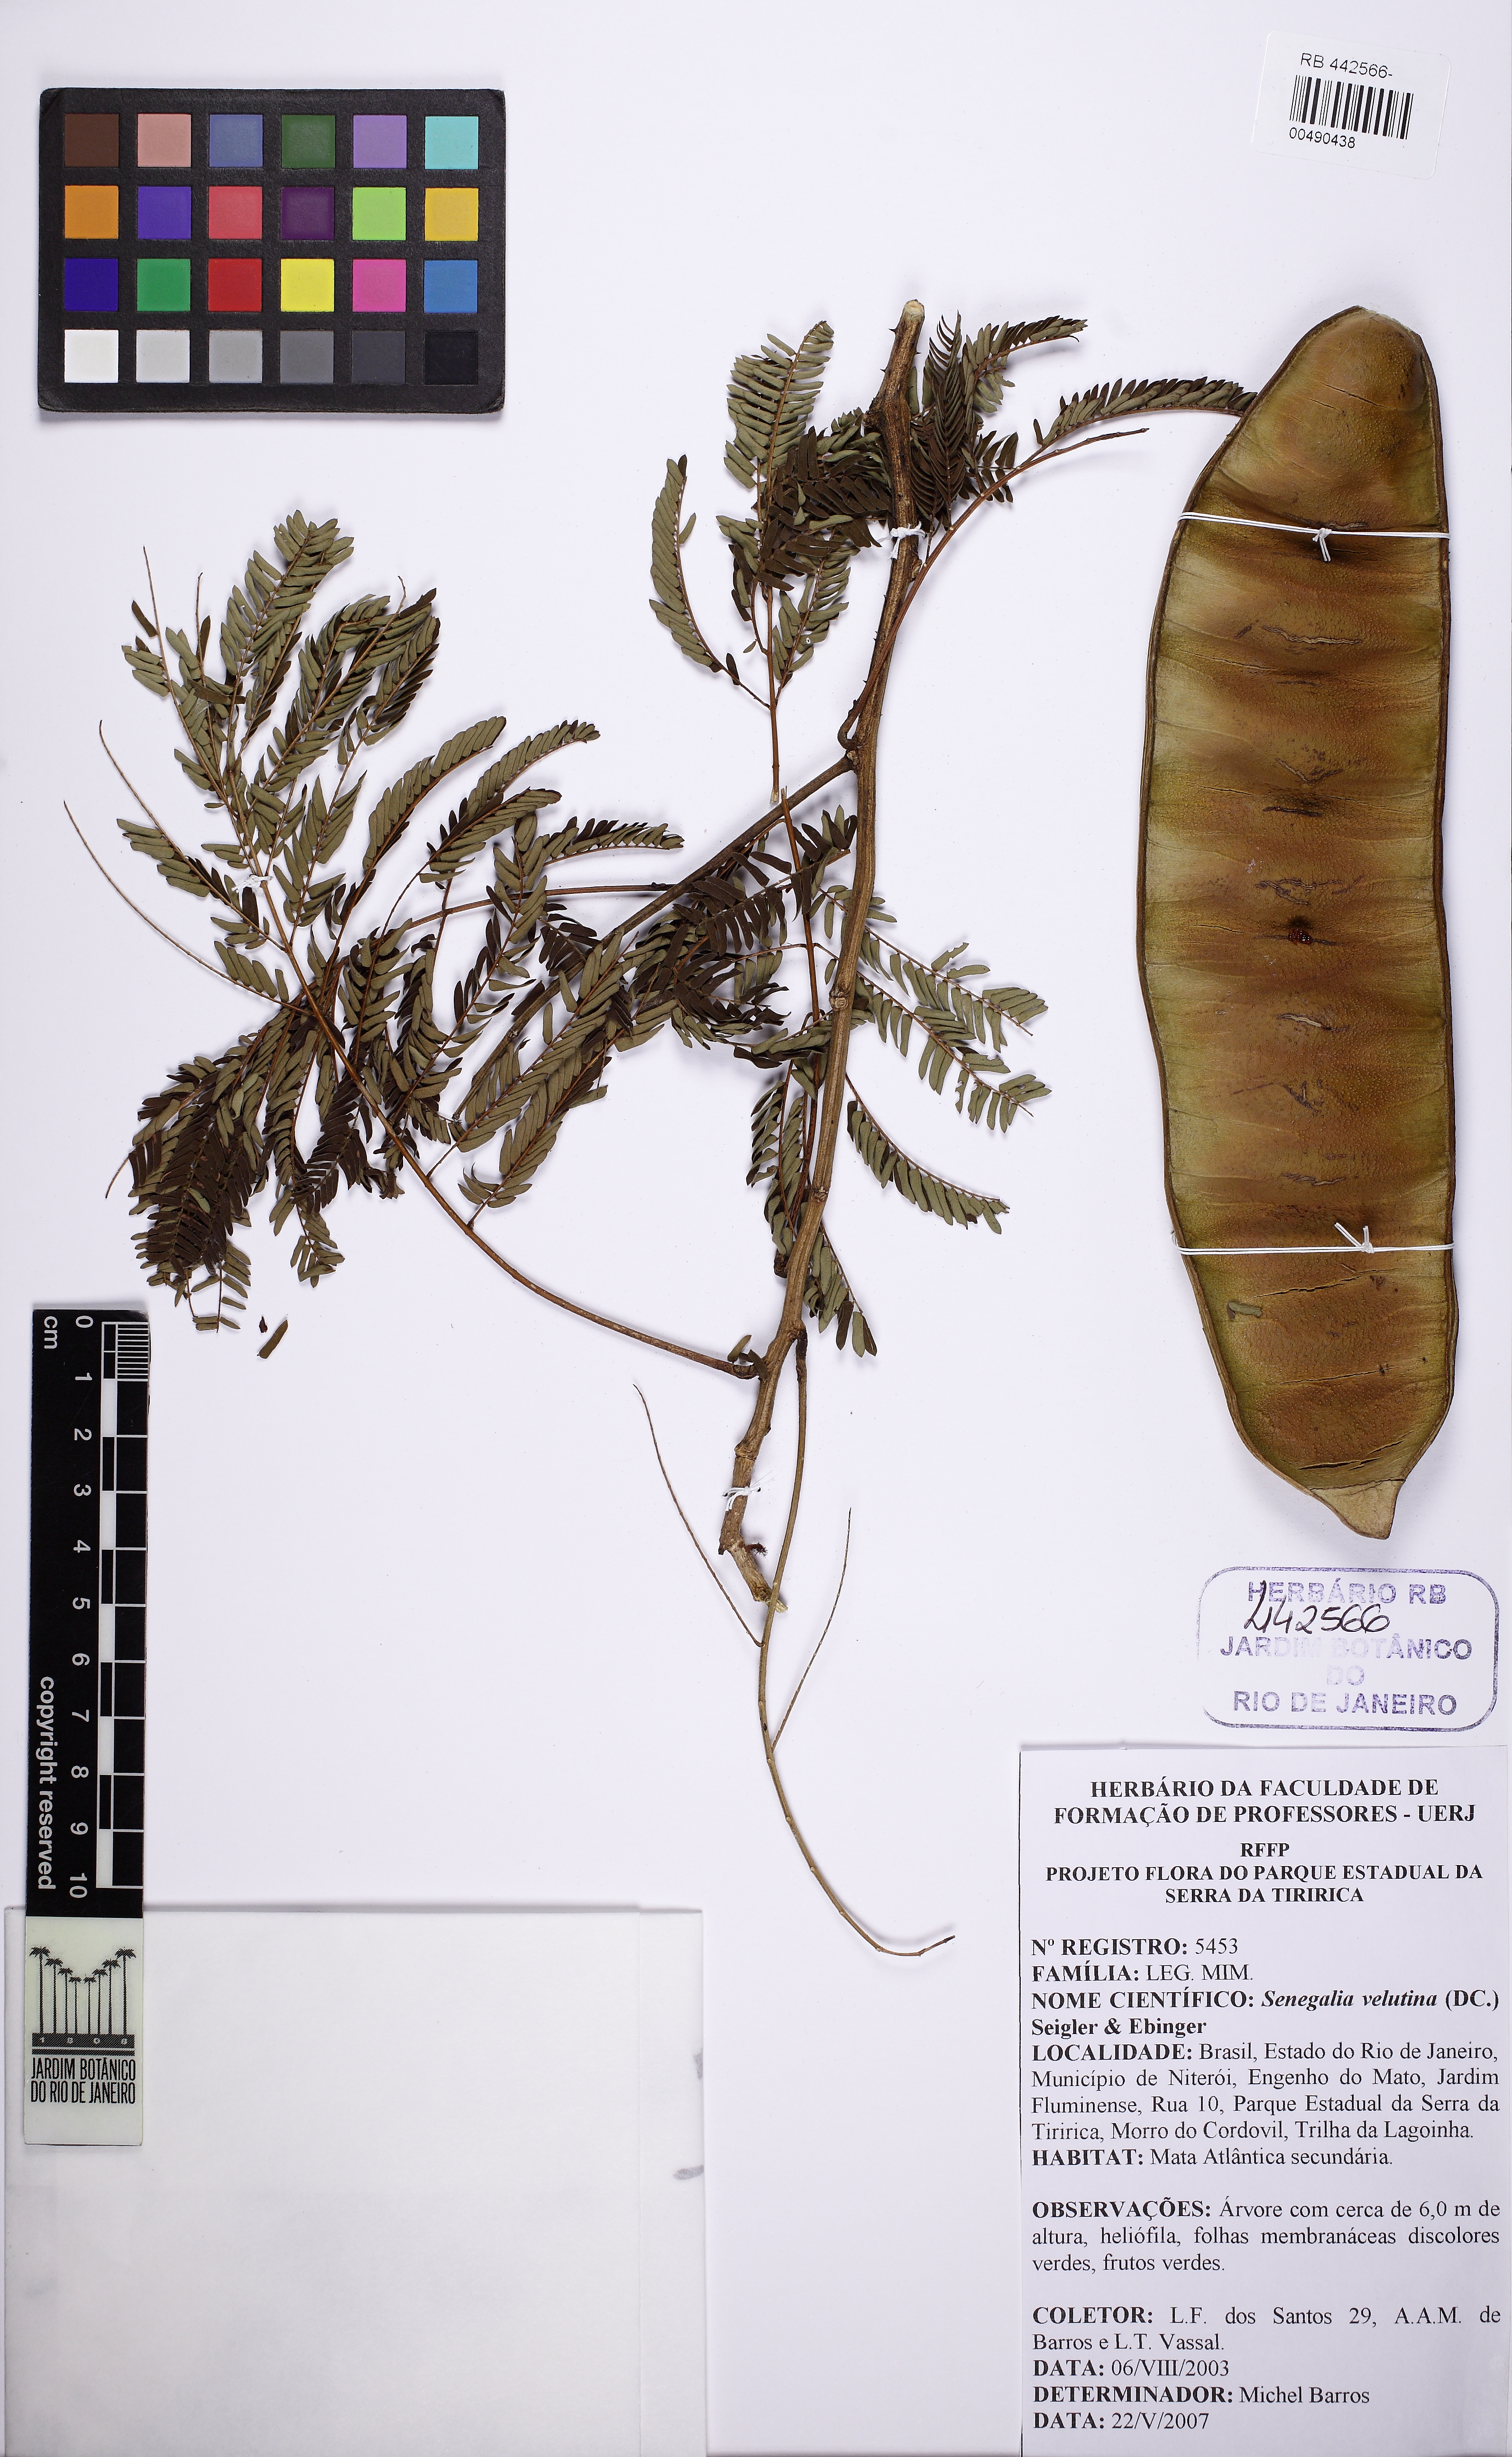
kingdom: Plantae
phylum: Tracheophyta
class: Magnoliopsida
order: Fabales
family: Fabaceae
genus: Senegalia
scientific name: Senegalia velutina
